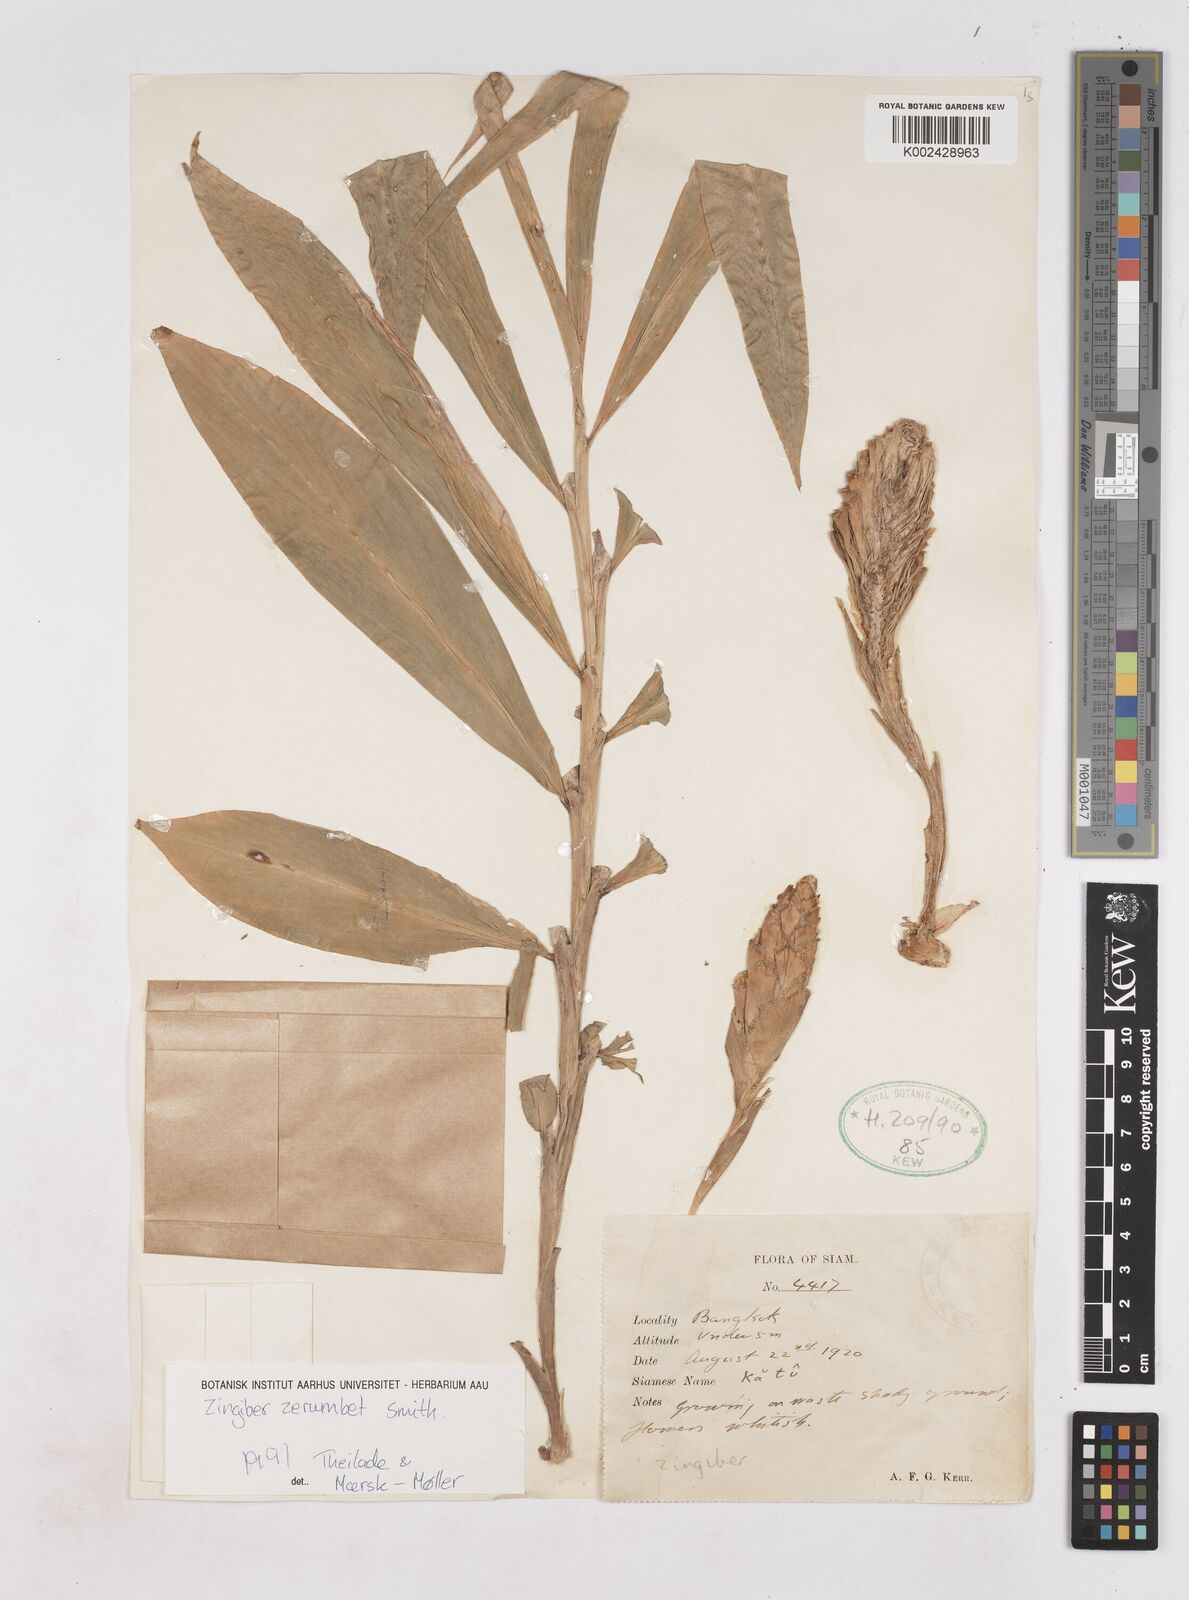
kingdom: Plantae
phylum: Tracheophyta
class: Liliopsida
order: Zingiberales
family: Zingiberaceae
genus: Zingiber
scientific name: Zingiber zerumbet
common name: Bitter ginger
